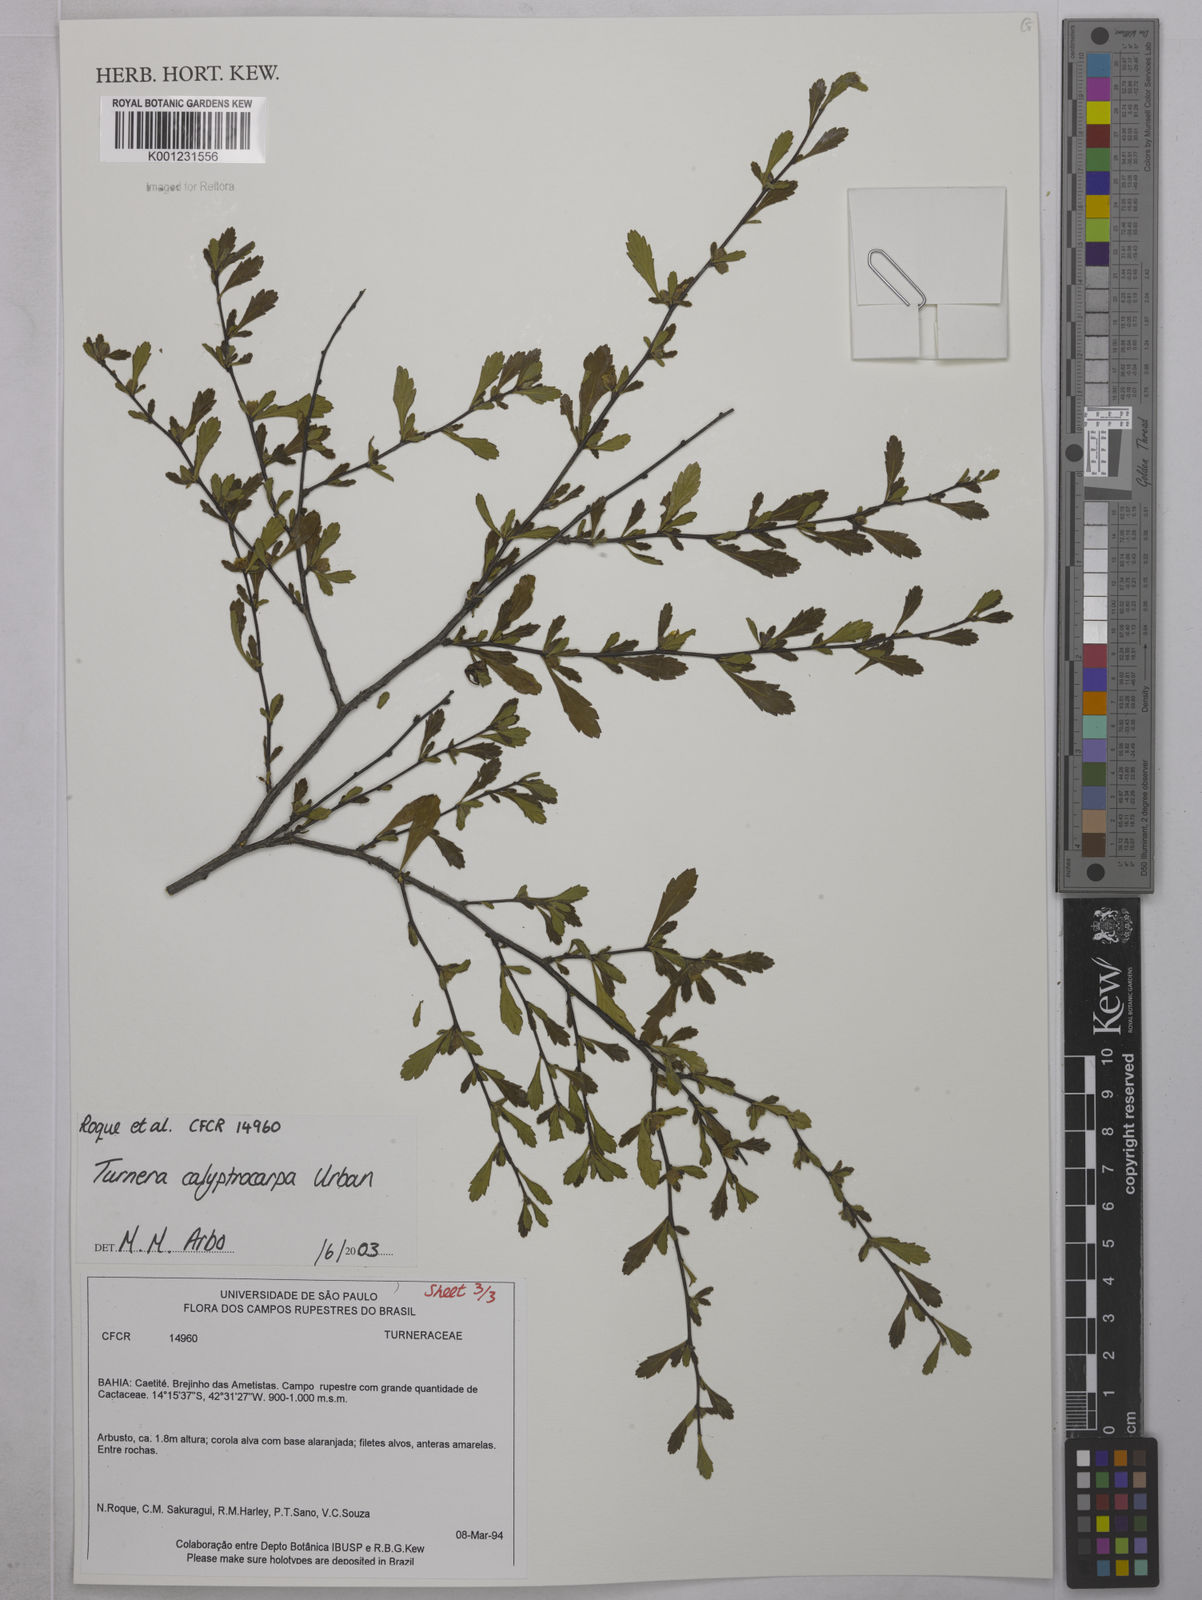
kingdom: Plantae
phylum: Tracheophyta
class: Magnoliopsida
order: Malpighiales
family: Turneraceae
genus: Oxossia
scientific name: Oxossia calyptrocarpa
